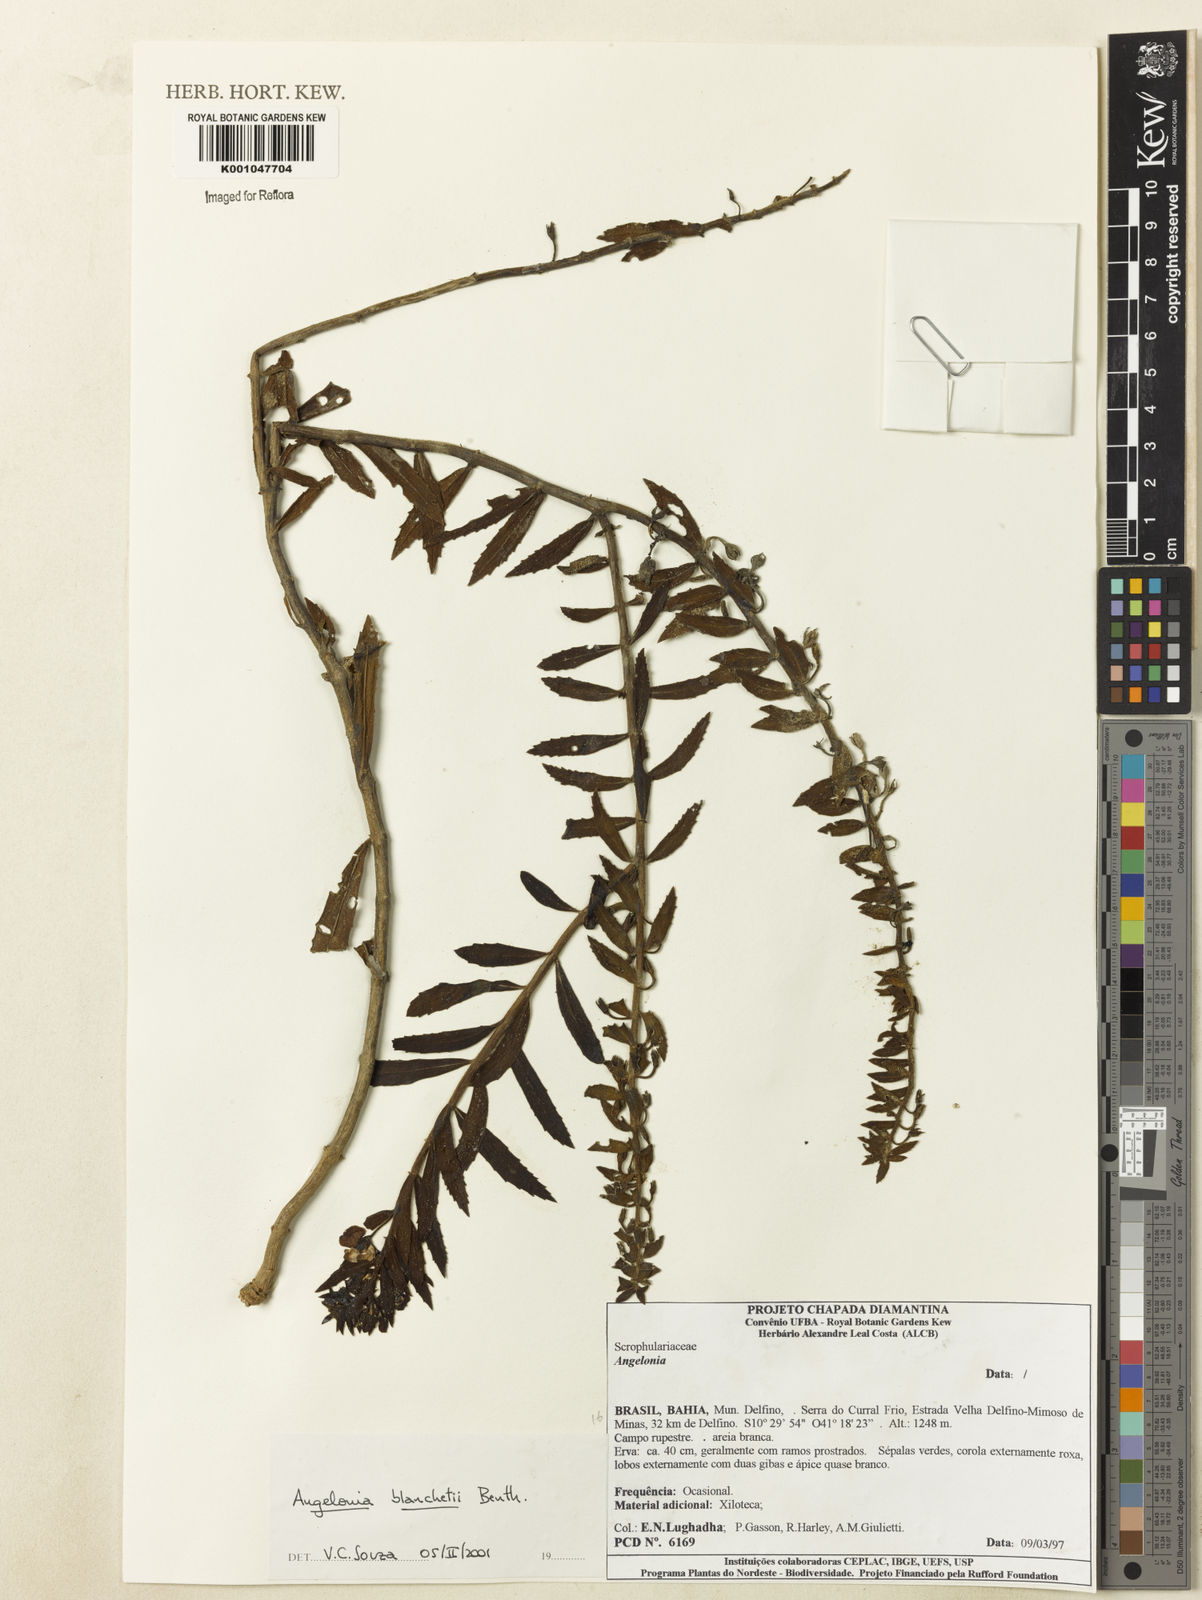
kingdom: Plantae
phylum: Tracheophyta
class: Magnoliopsida
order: Lamiales
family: Plantaginaceae
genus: Angelonia
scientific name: Angelonia blanchetii
